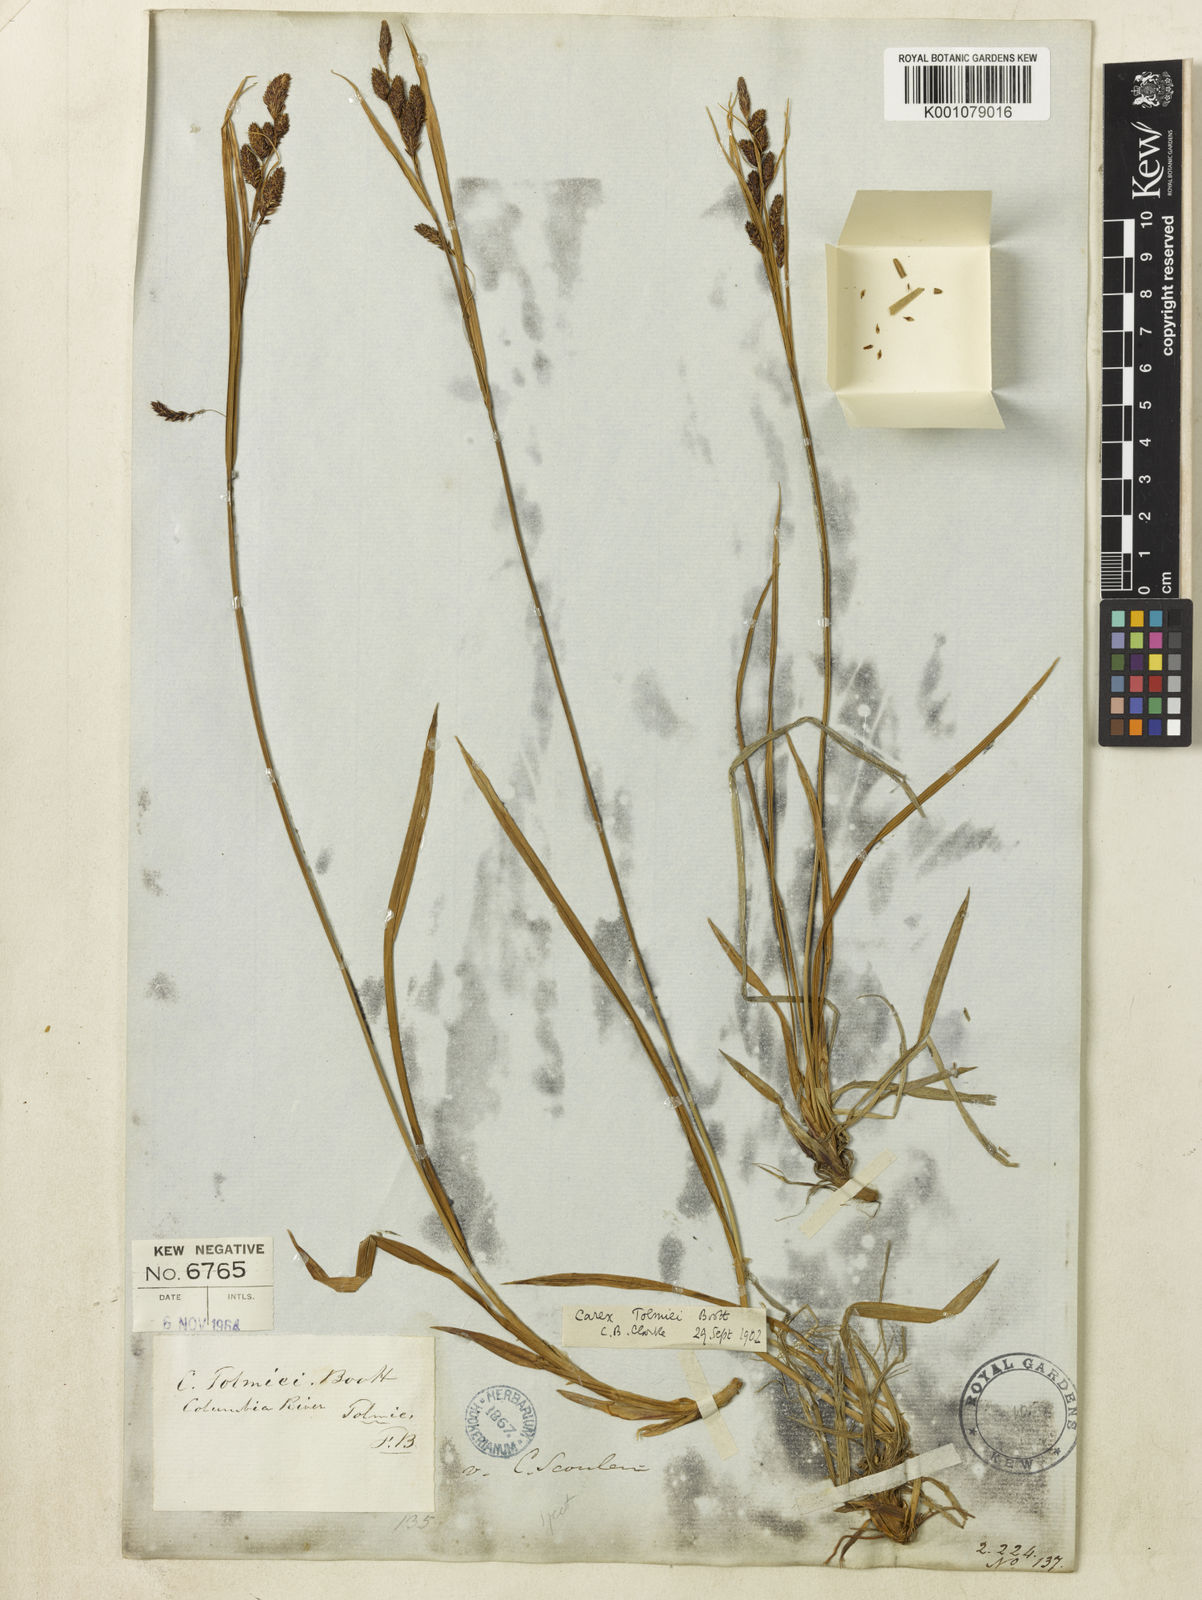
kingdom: Plantae
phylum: Tracheophyta
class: Liliopsida
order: Poales
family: Cyperaceae
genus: Carex
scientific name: Carex spectabilis
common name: Northwestern showy sedge
